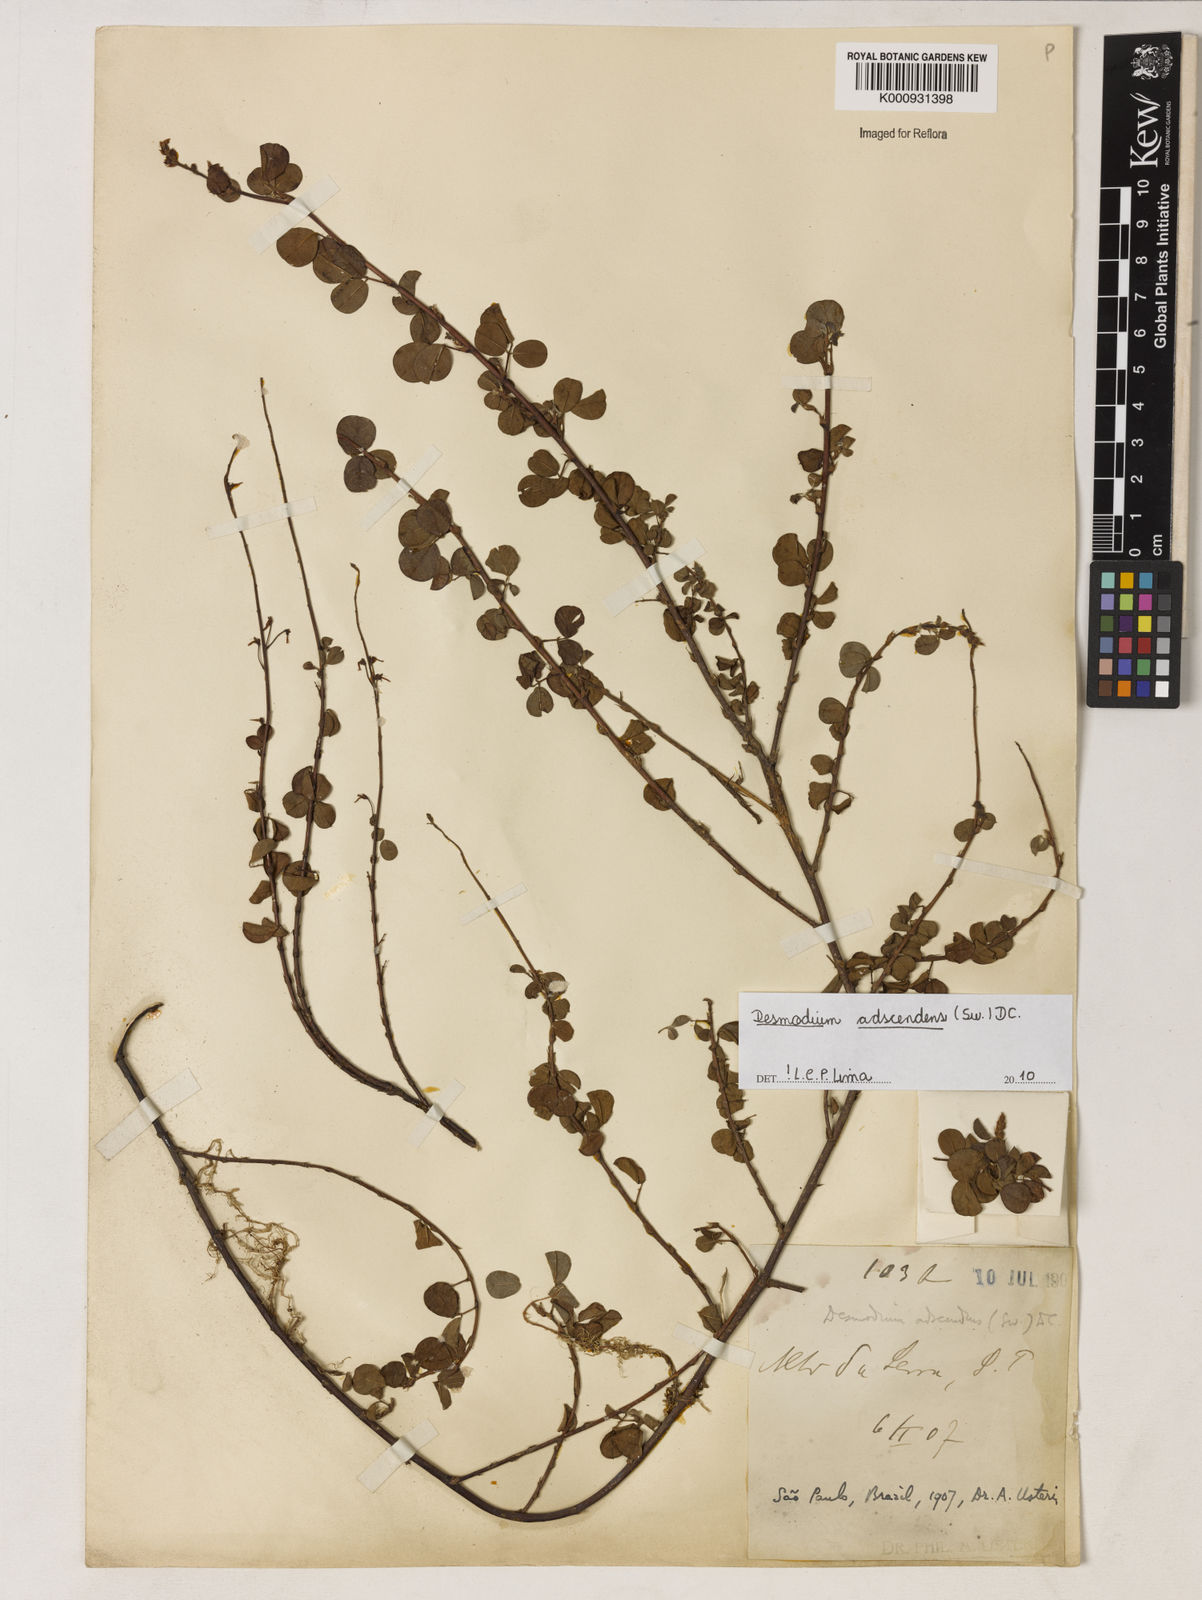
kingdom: Plantae
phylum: Tracheophyta
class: Magnoliopsida
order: Fabales
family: Fabaceae
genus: Grona
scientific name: Grona adscendens
